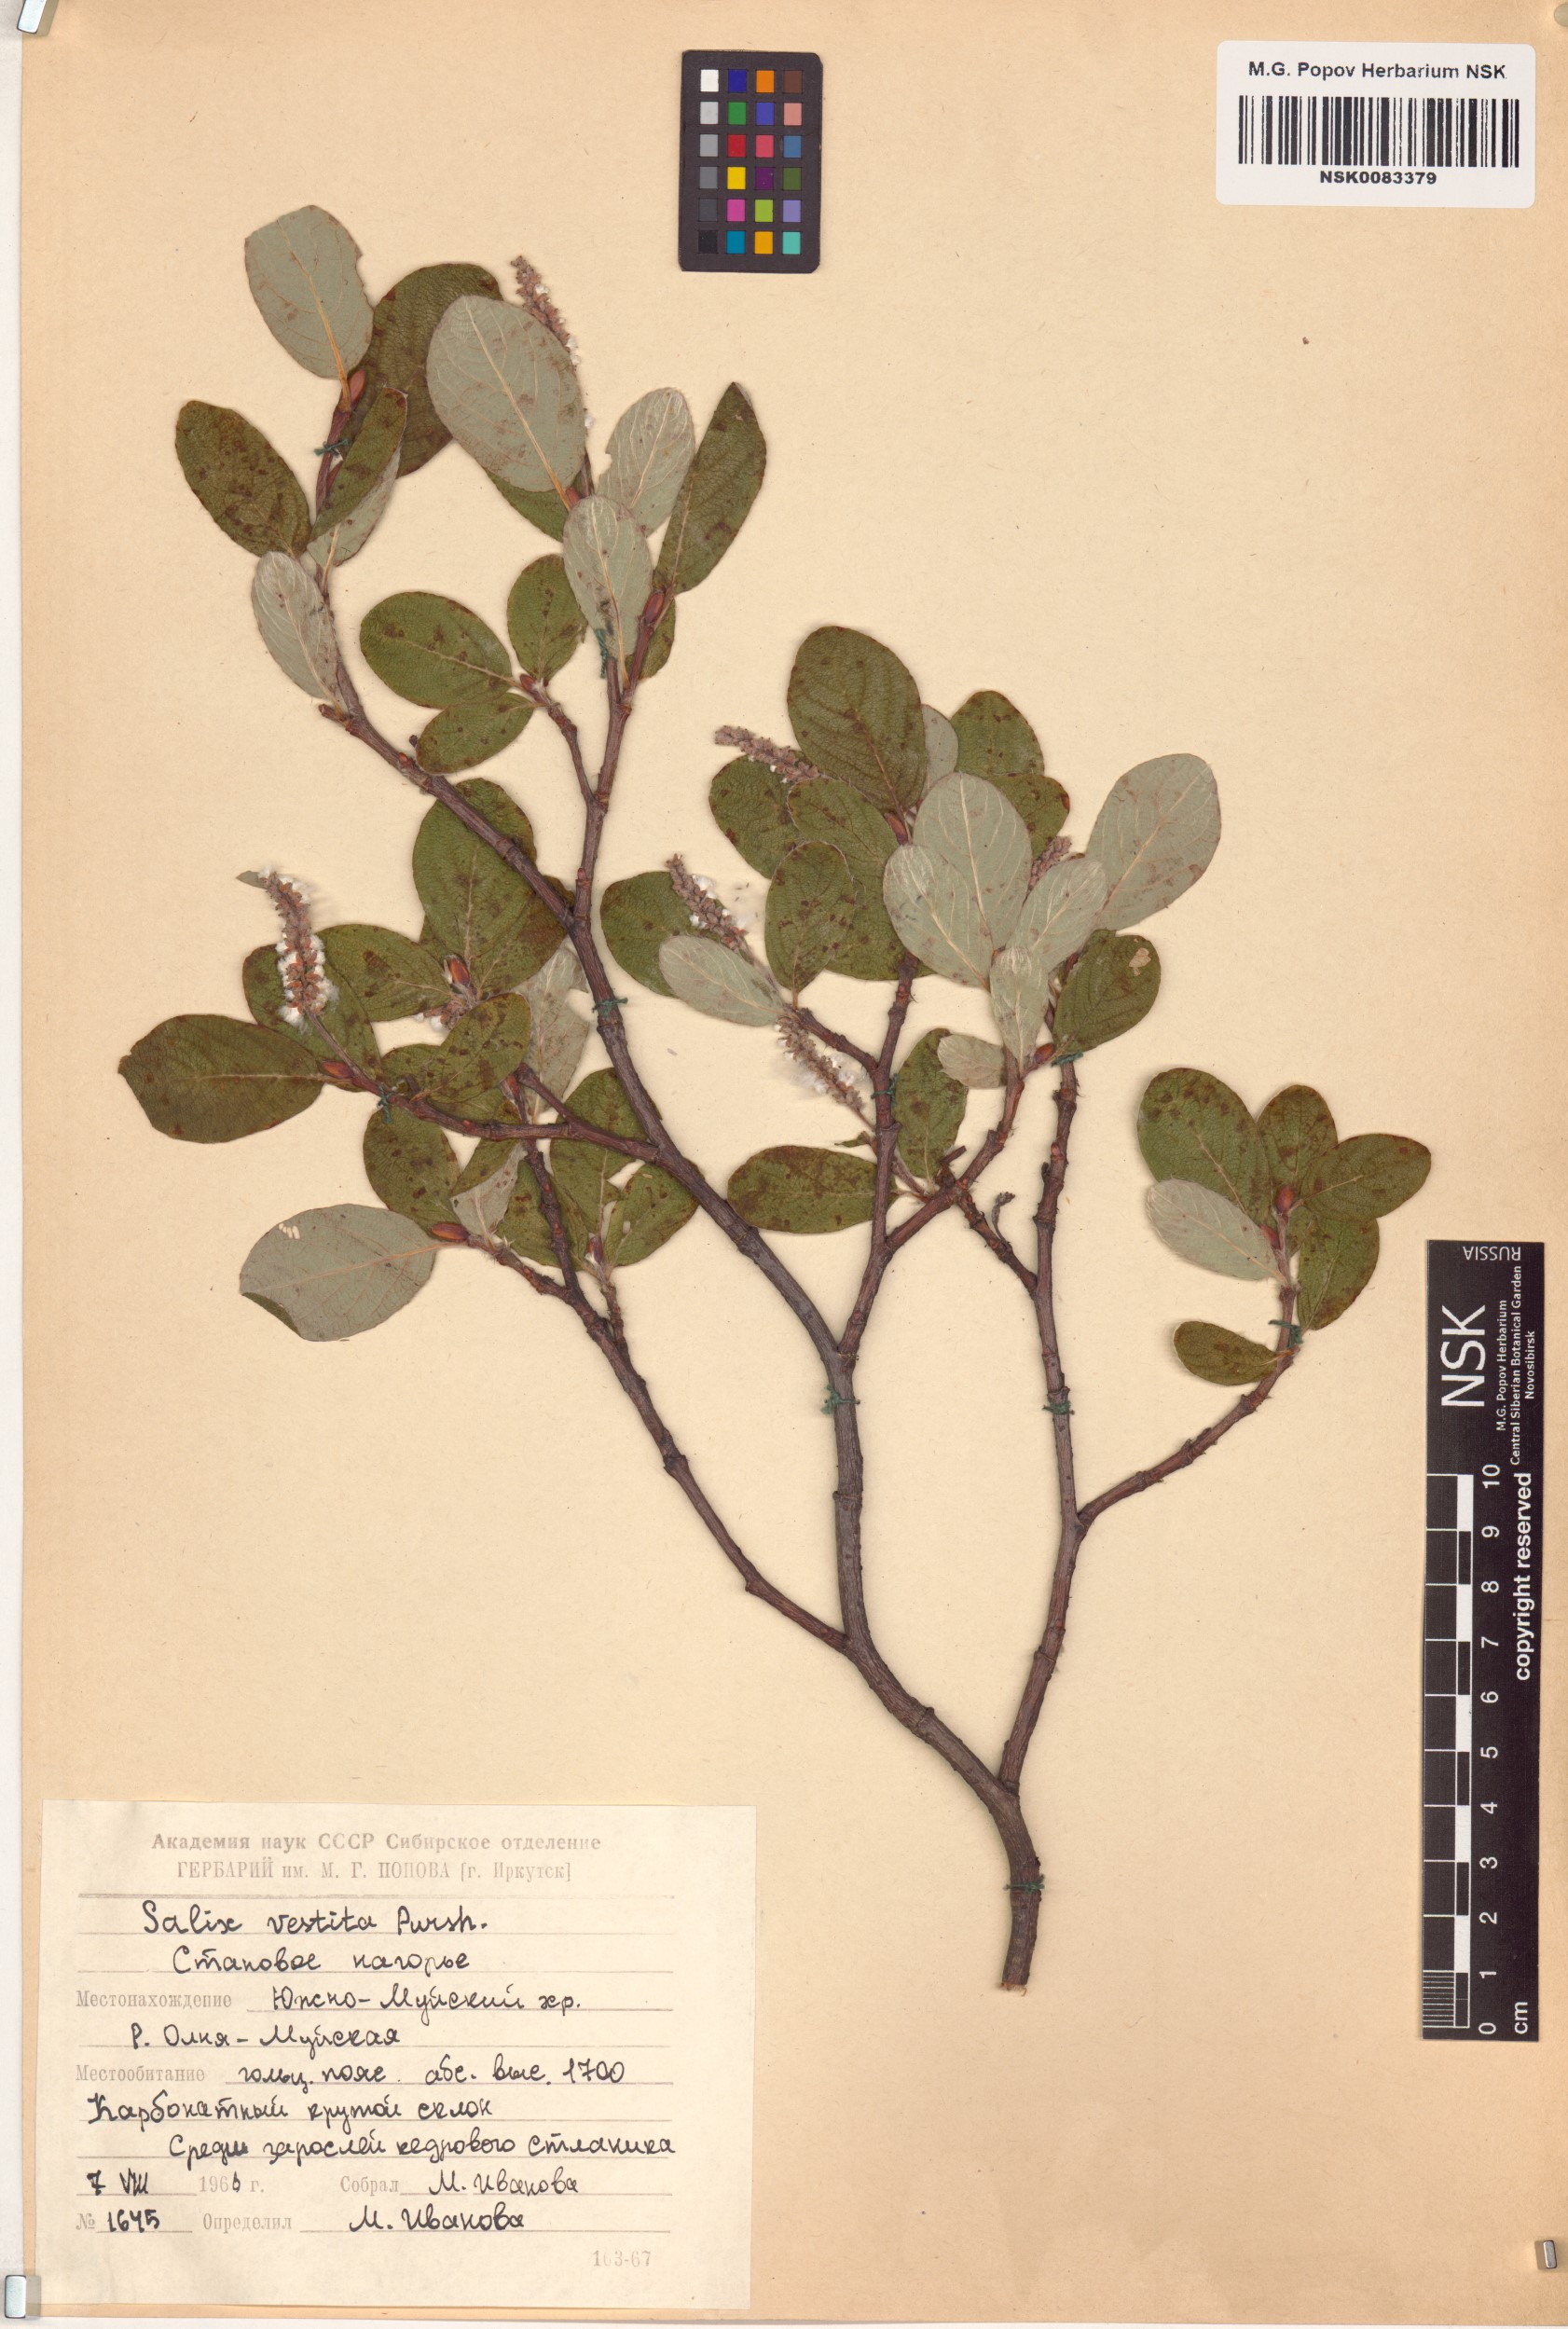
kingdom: Plantae
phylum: Tracheophyta
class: Magnoliopsida
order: Malpighiales
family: Salicaceae
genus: Salix
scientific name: Salix vestita
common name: Hairy willow
